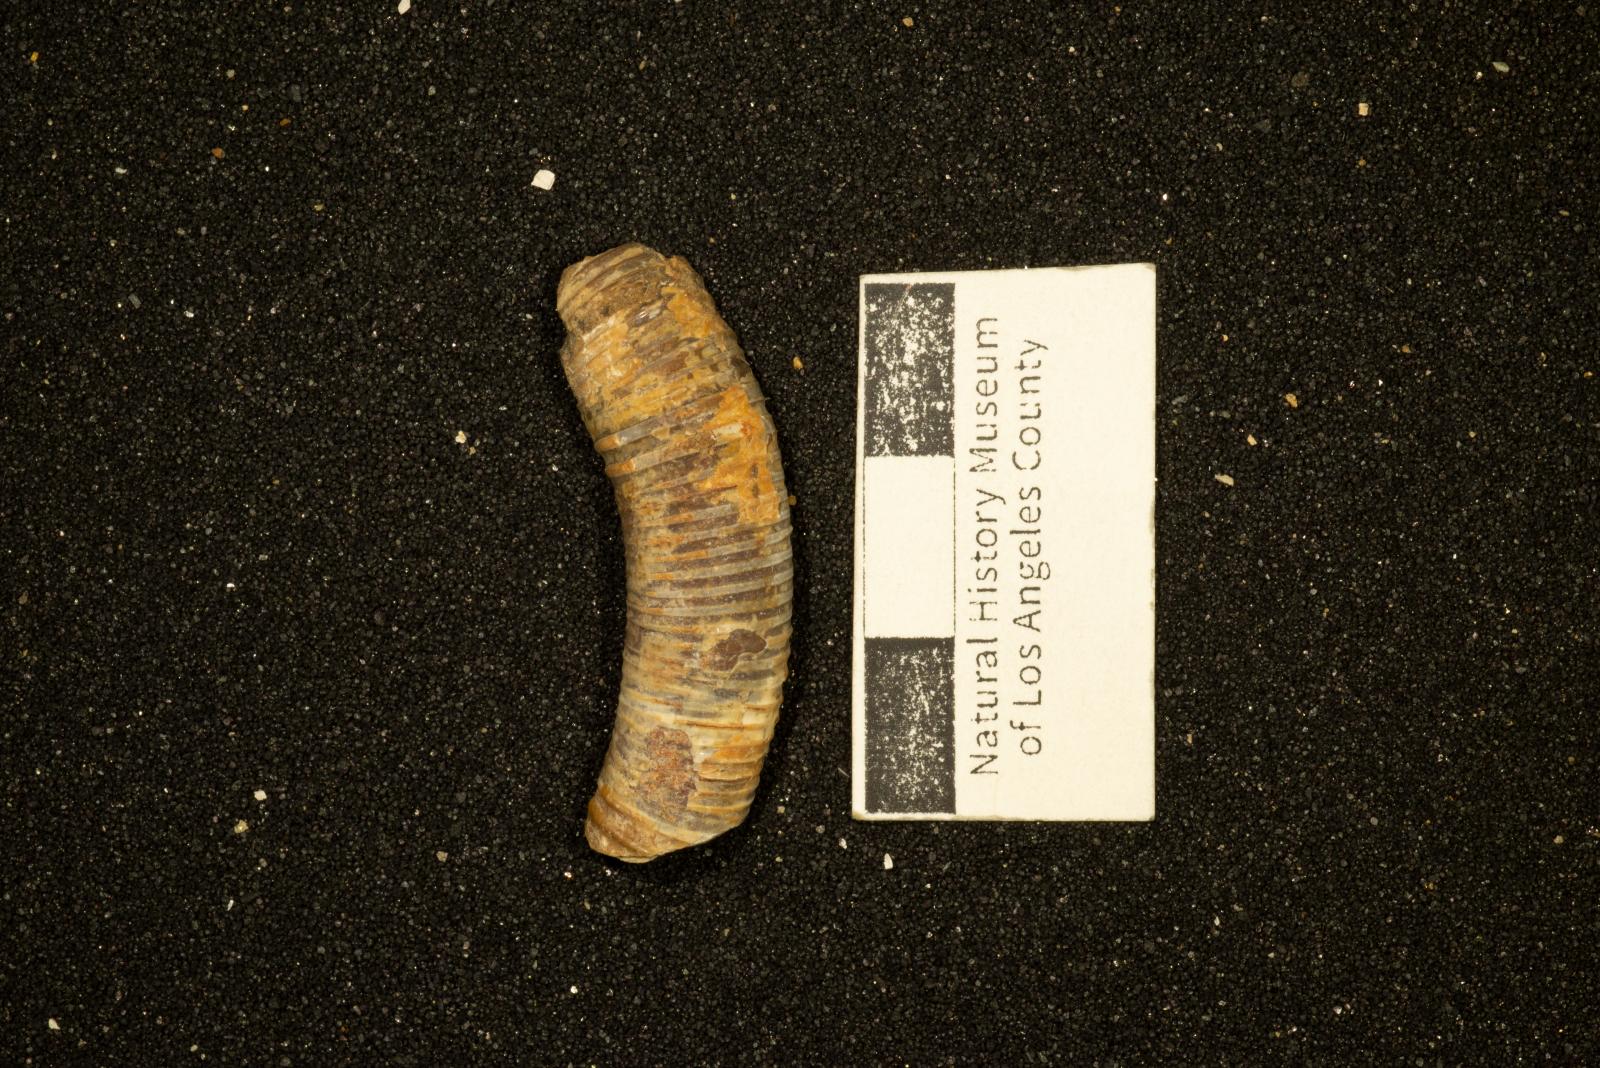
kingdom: Animalia
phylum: Mollusca
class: Cephalopoda
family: Diplomoceratidae
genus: Scalarites
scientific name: Scalarites mihoensis
